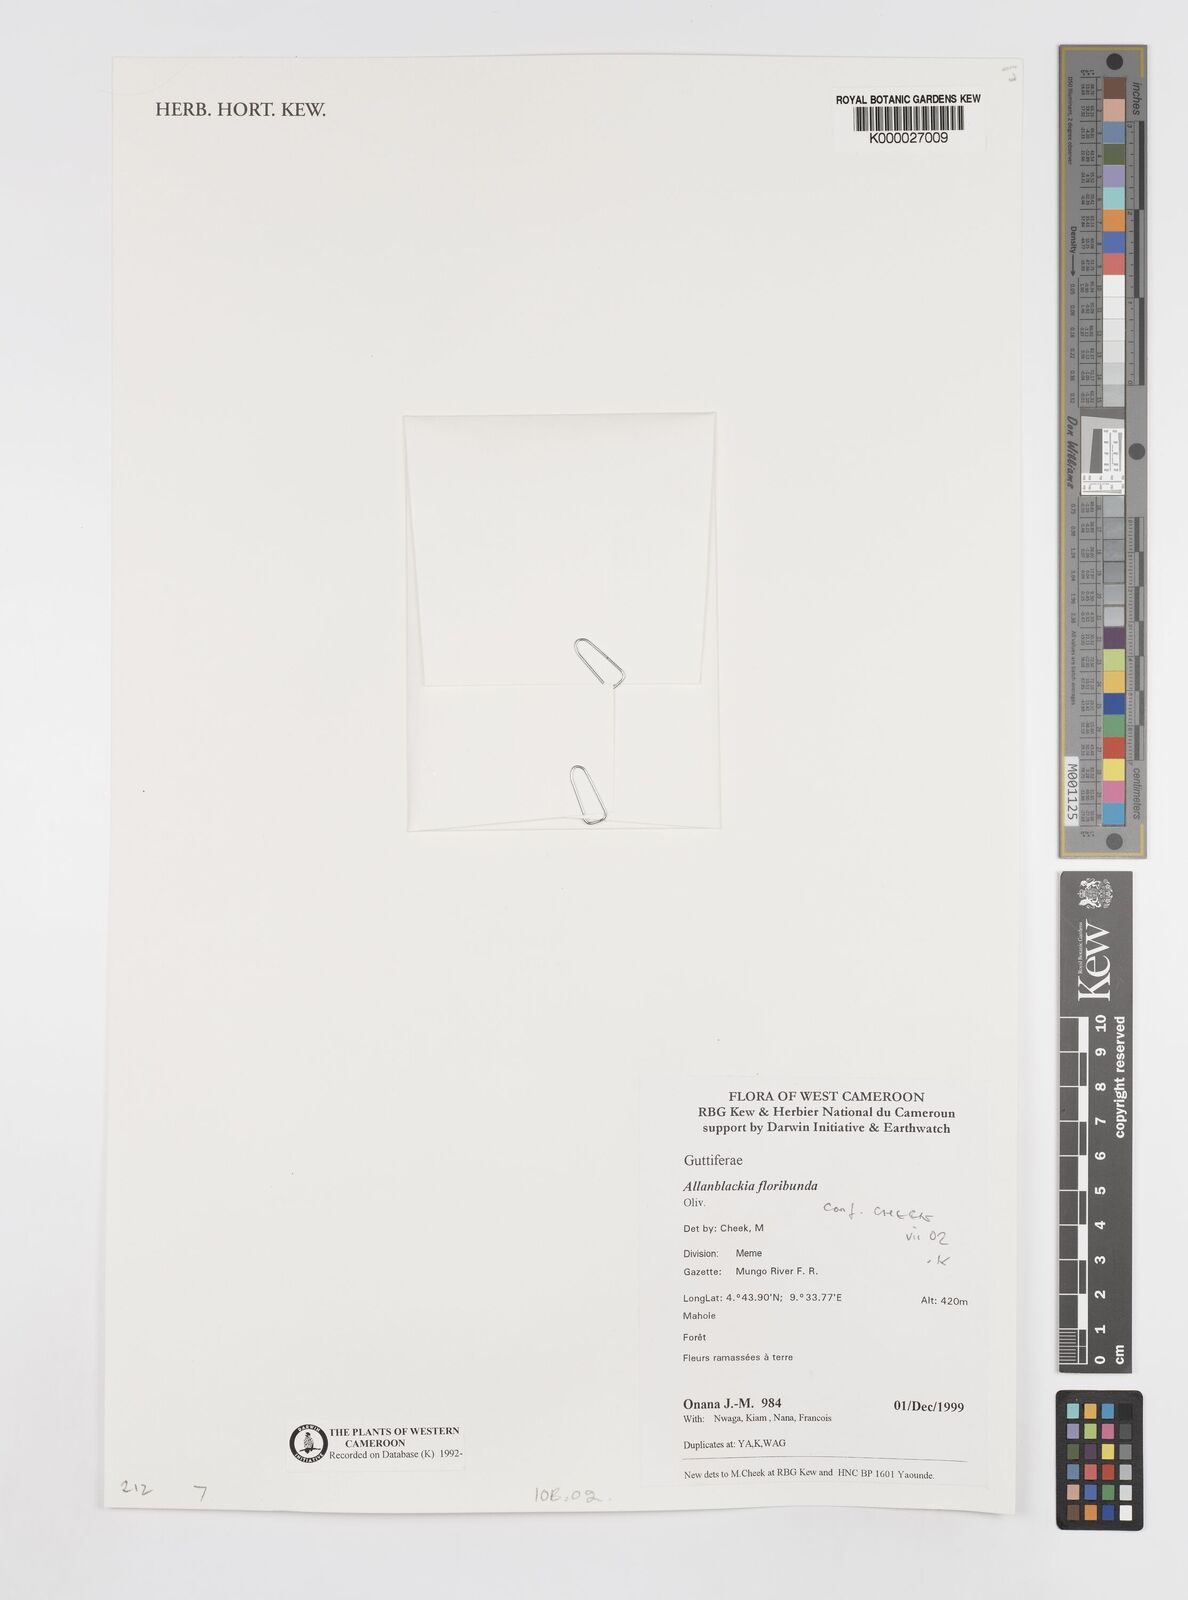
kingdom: Plantae
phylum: Tracheophyta
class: Magnoliopsida
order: Malpighiales
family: Clusiaceae
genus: Allanblackia
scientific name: Allanblackia floribunda
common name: Tallow tree
